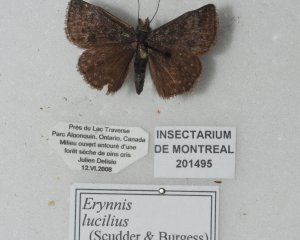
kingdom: Animalia
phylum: Arthropoda
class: Insecta
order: Lepidoptera
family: Hesperiidae
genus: Gesta
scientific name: Gesta
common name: Columbine Duskywing
